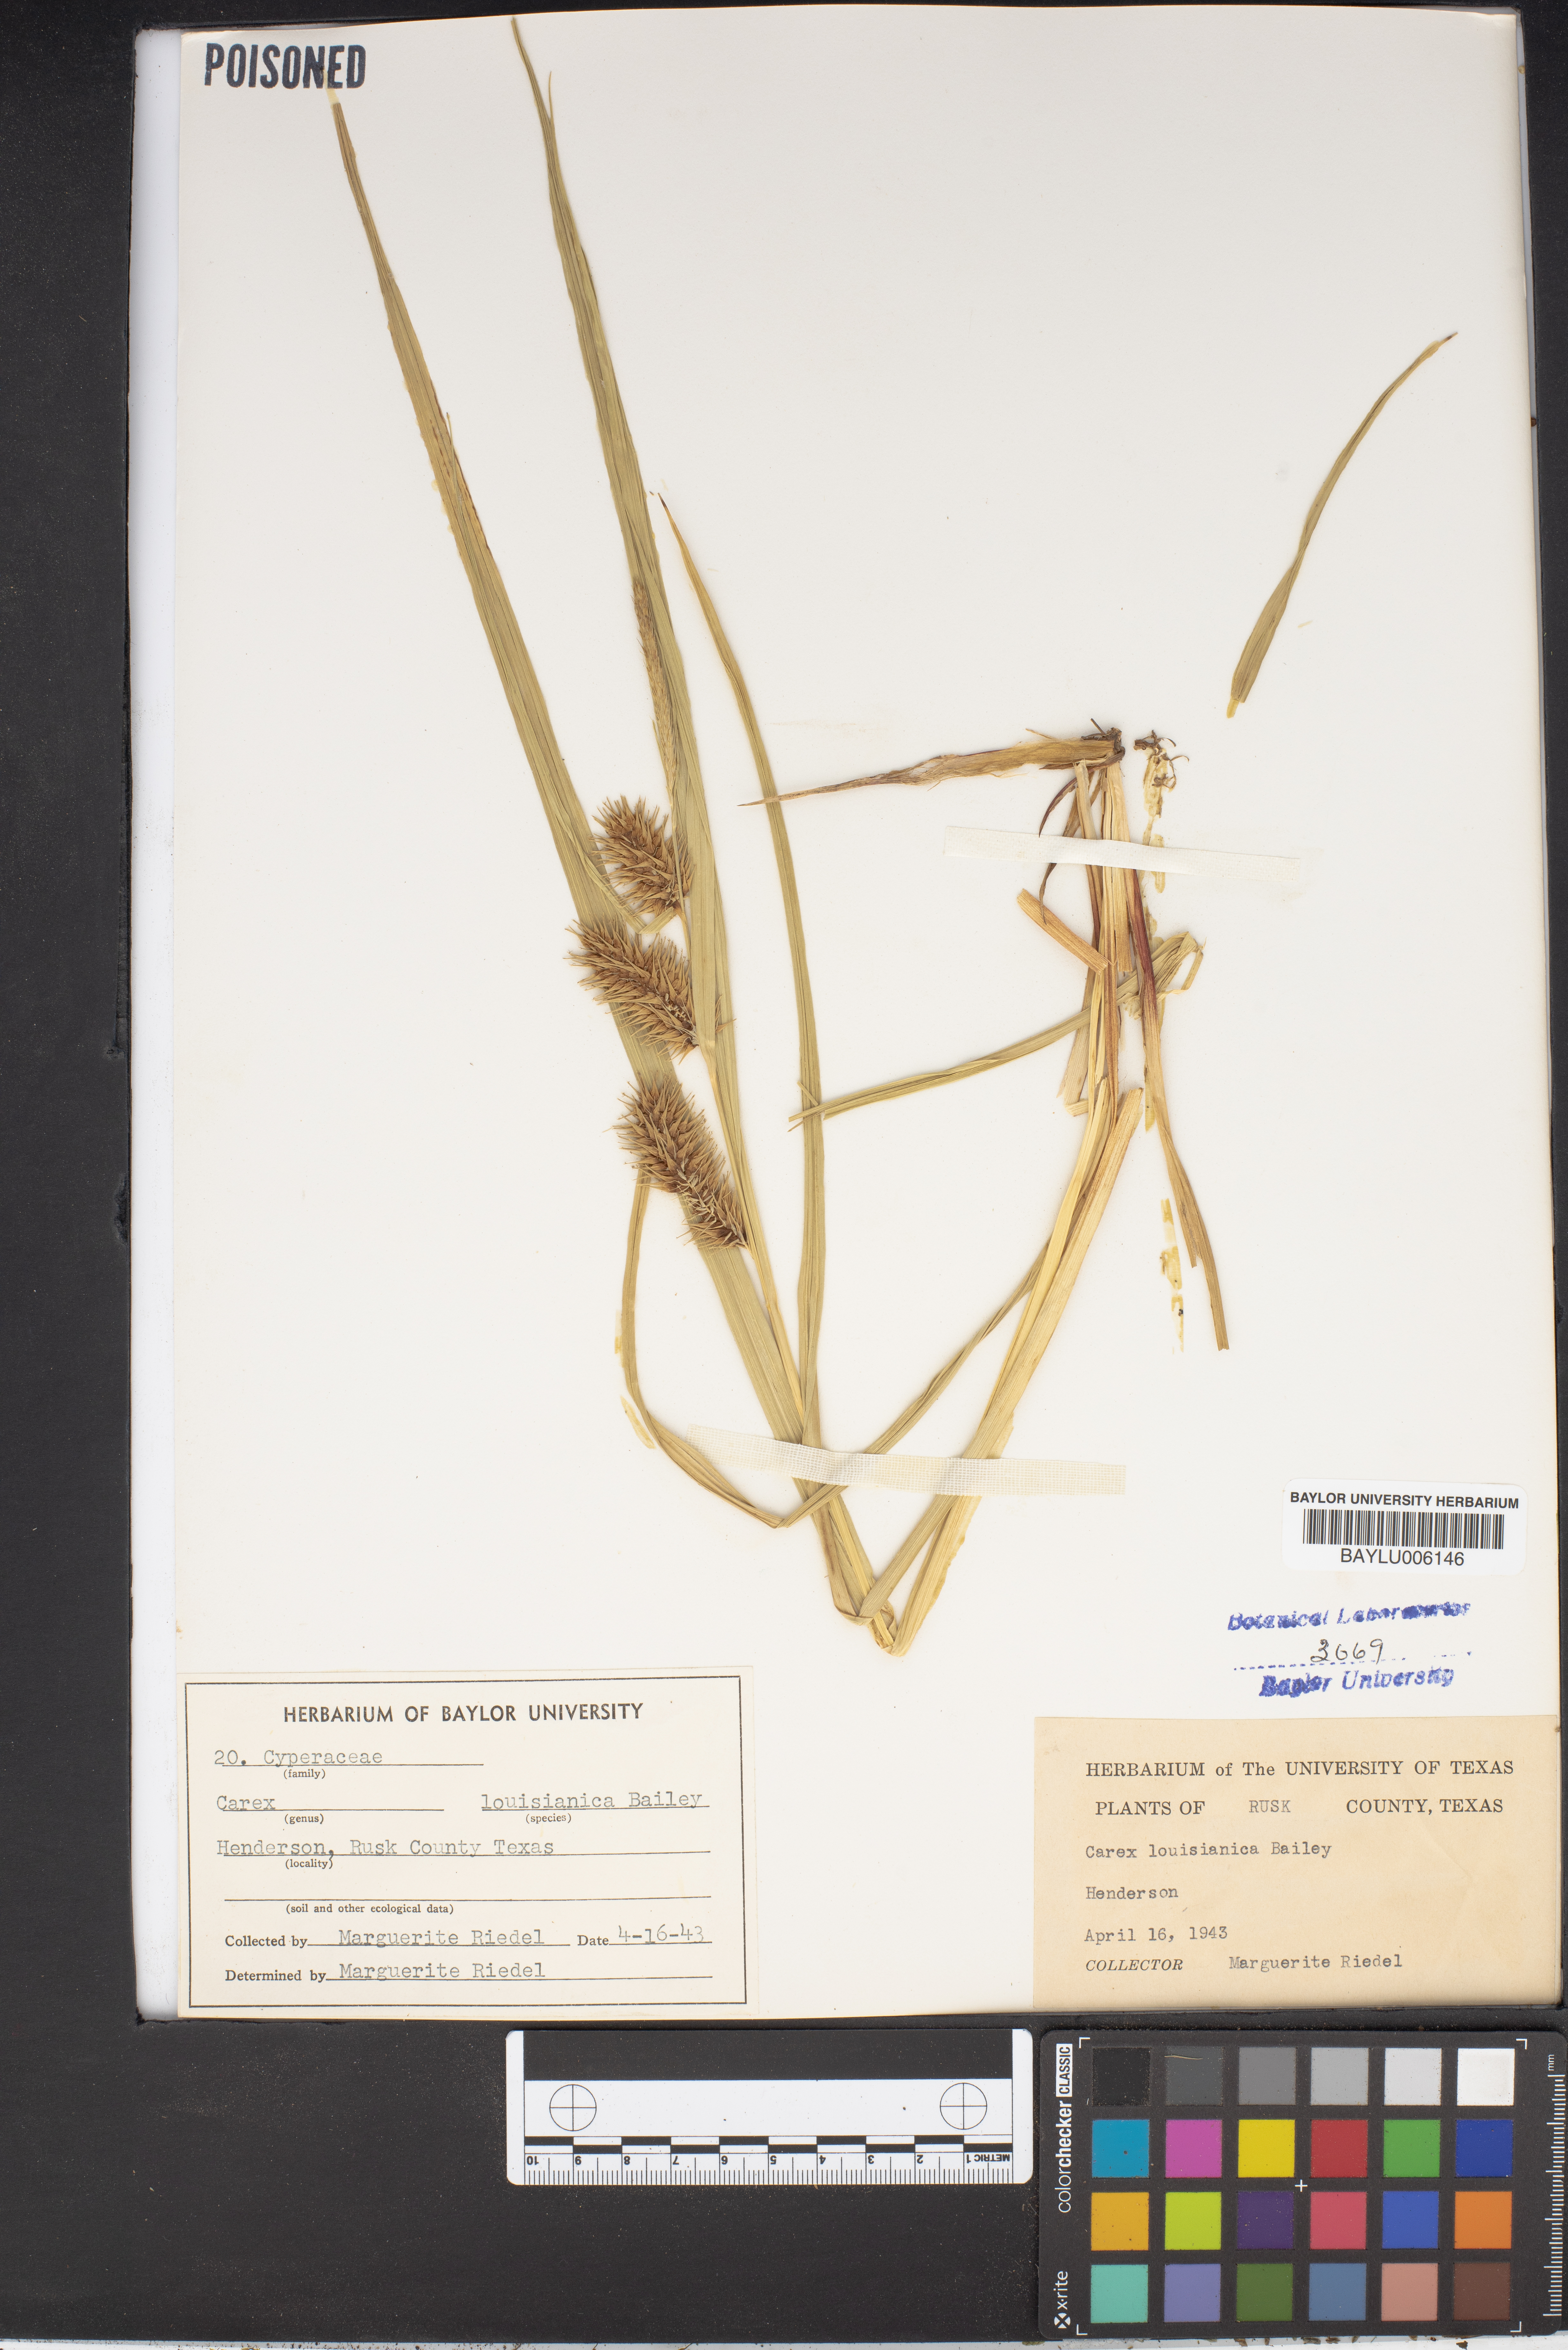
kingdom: Plantae
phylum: Tracheophyta
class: Liliopsida
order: Poales
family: Cyperaceae
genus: Carex
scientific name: Carex louisianica
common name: Louisiana sedge
